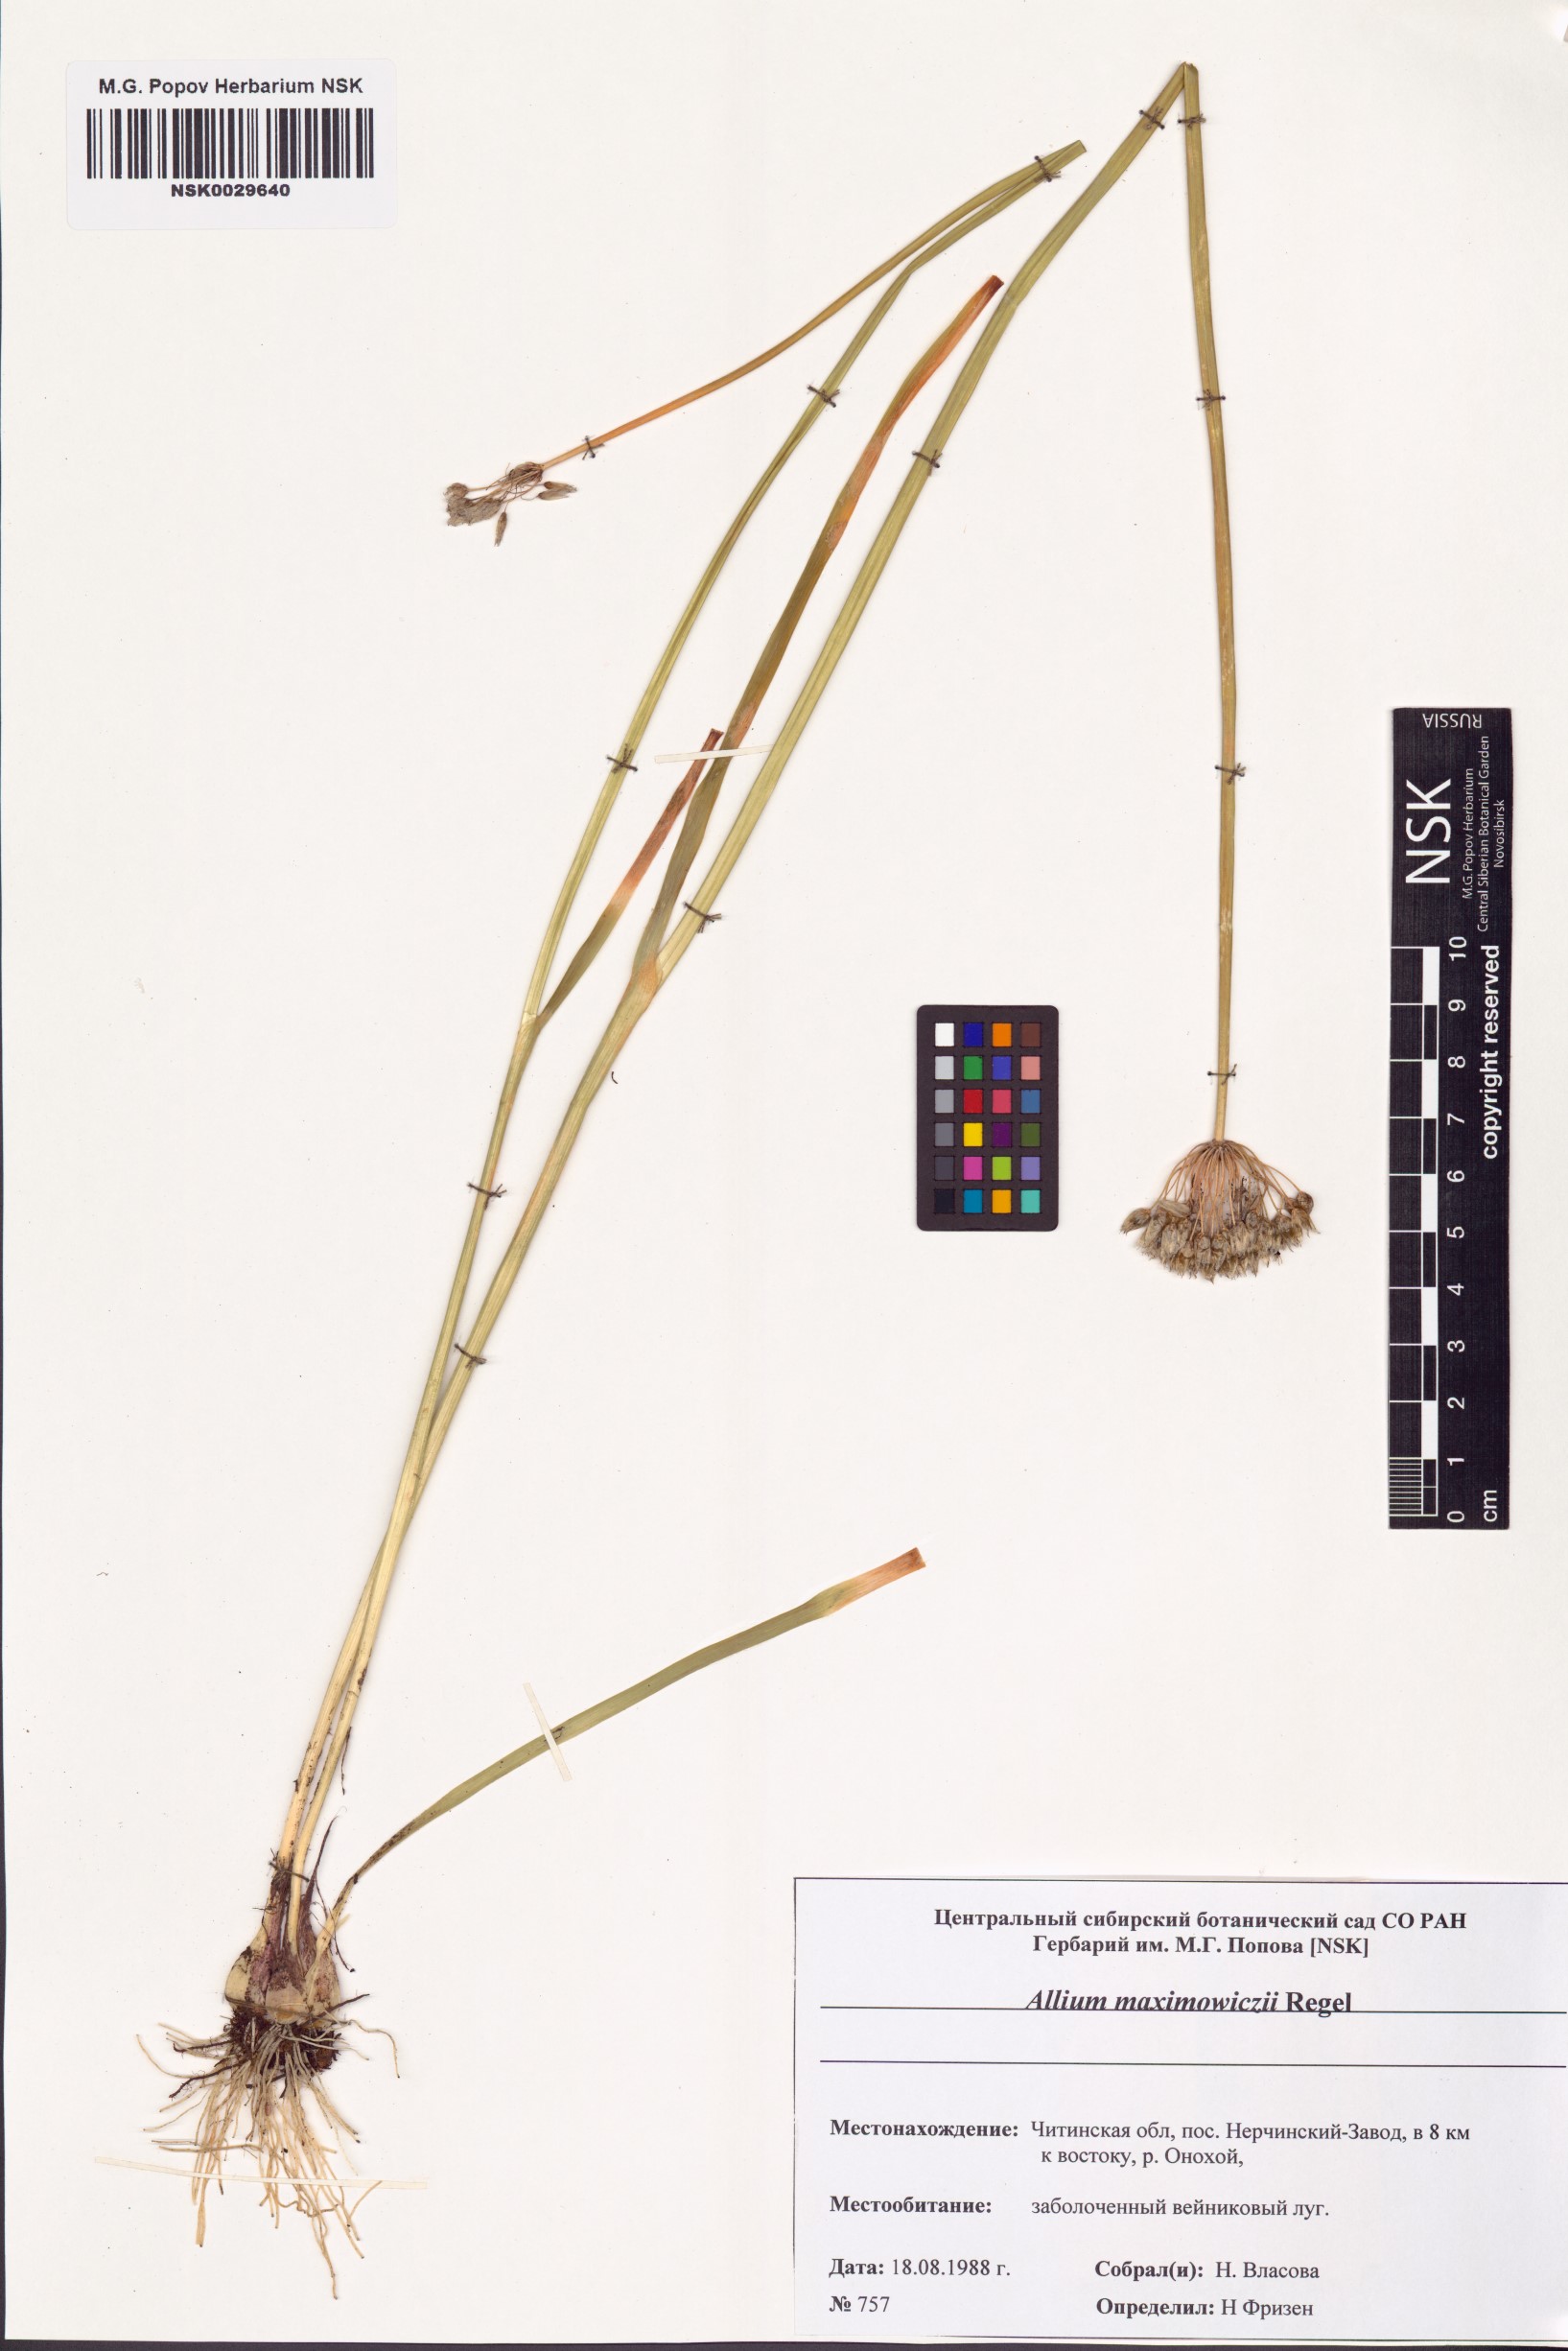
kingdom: Plantae
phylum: Tracheophyta
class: Liliopsida
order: Asparagales
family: Amaryllidaceae
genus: Allium
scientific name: Allium maximowiczii
